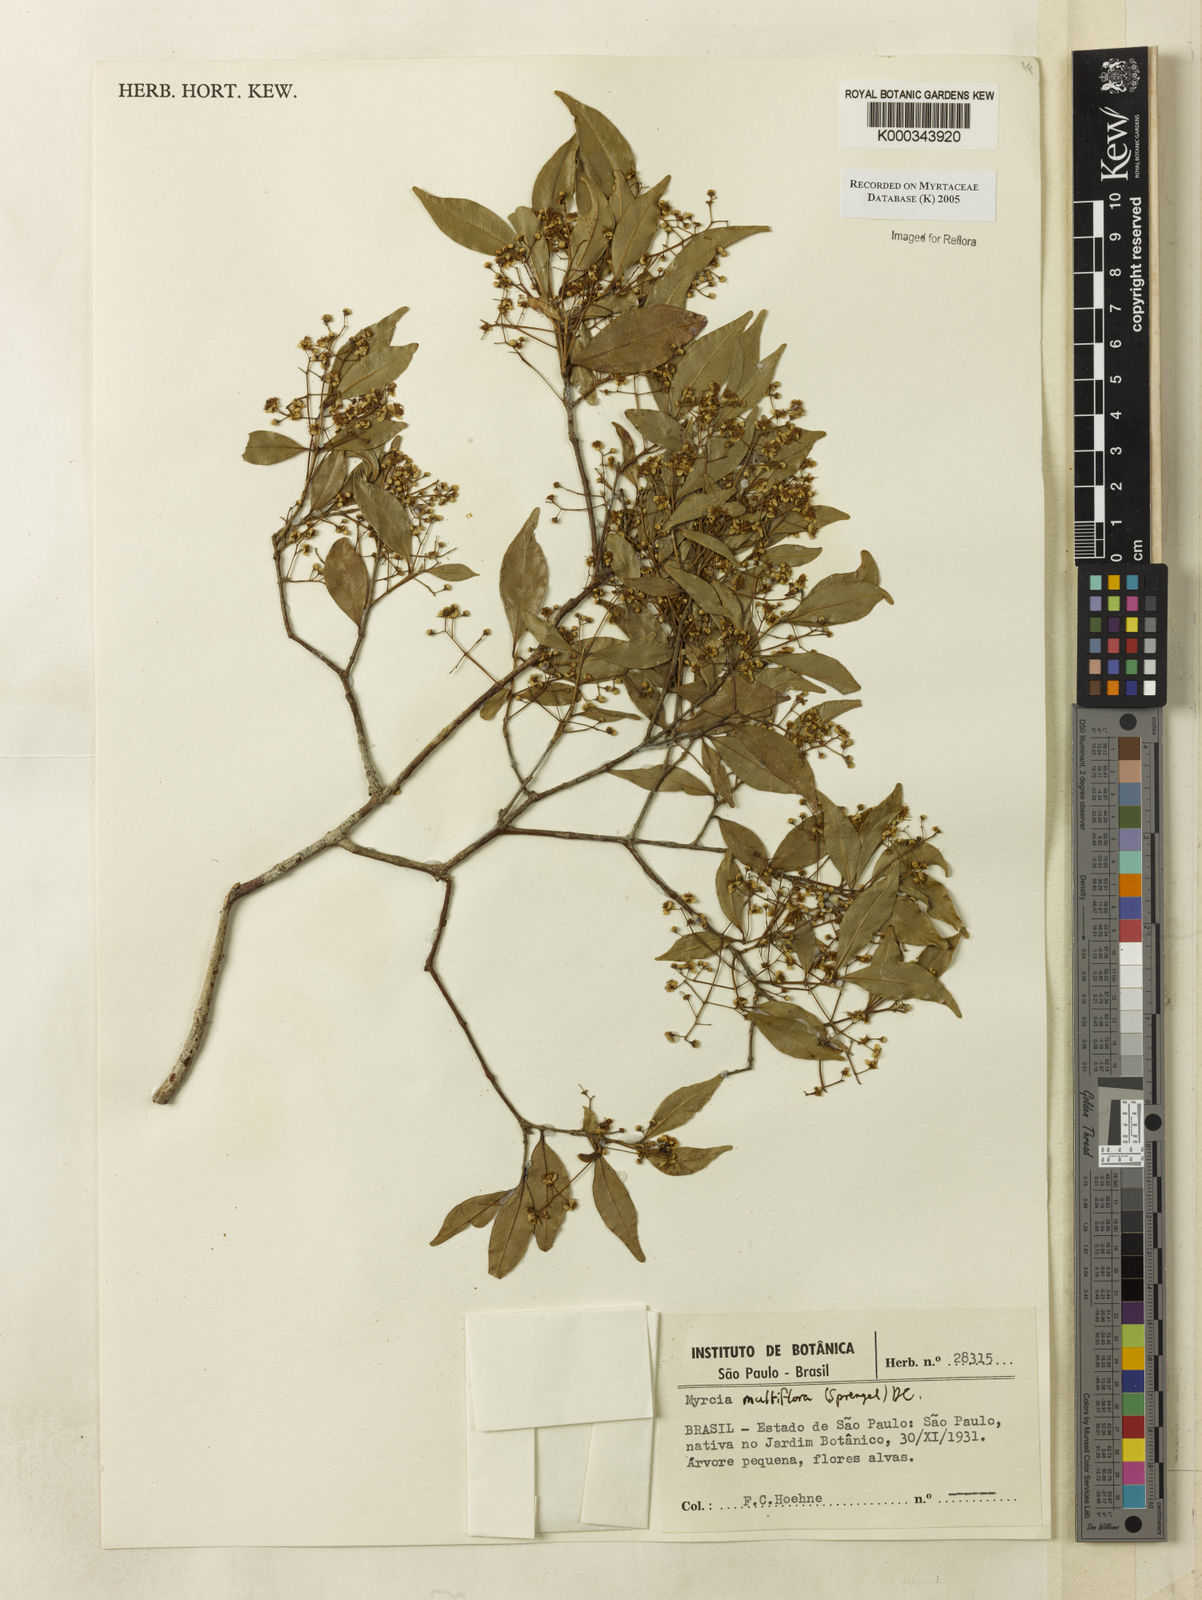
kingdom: Plantae
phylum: Tracheophyta
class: Magnoliopsida
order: Myrtales
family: Myrtaceae
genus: Myrcia
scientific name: Myrcia multiflora
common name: Pedra hume
